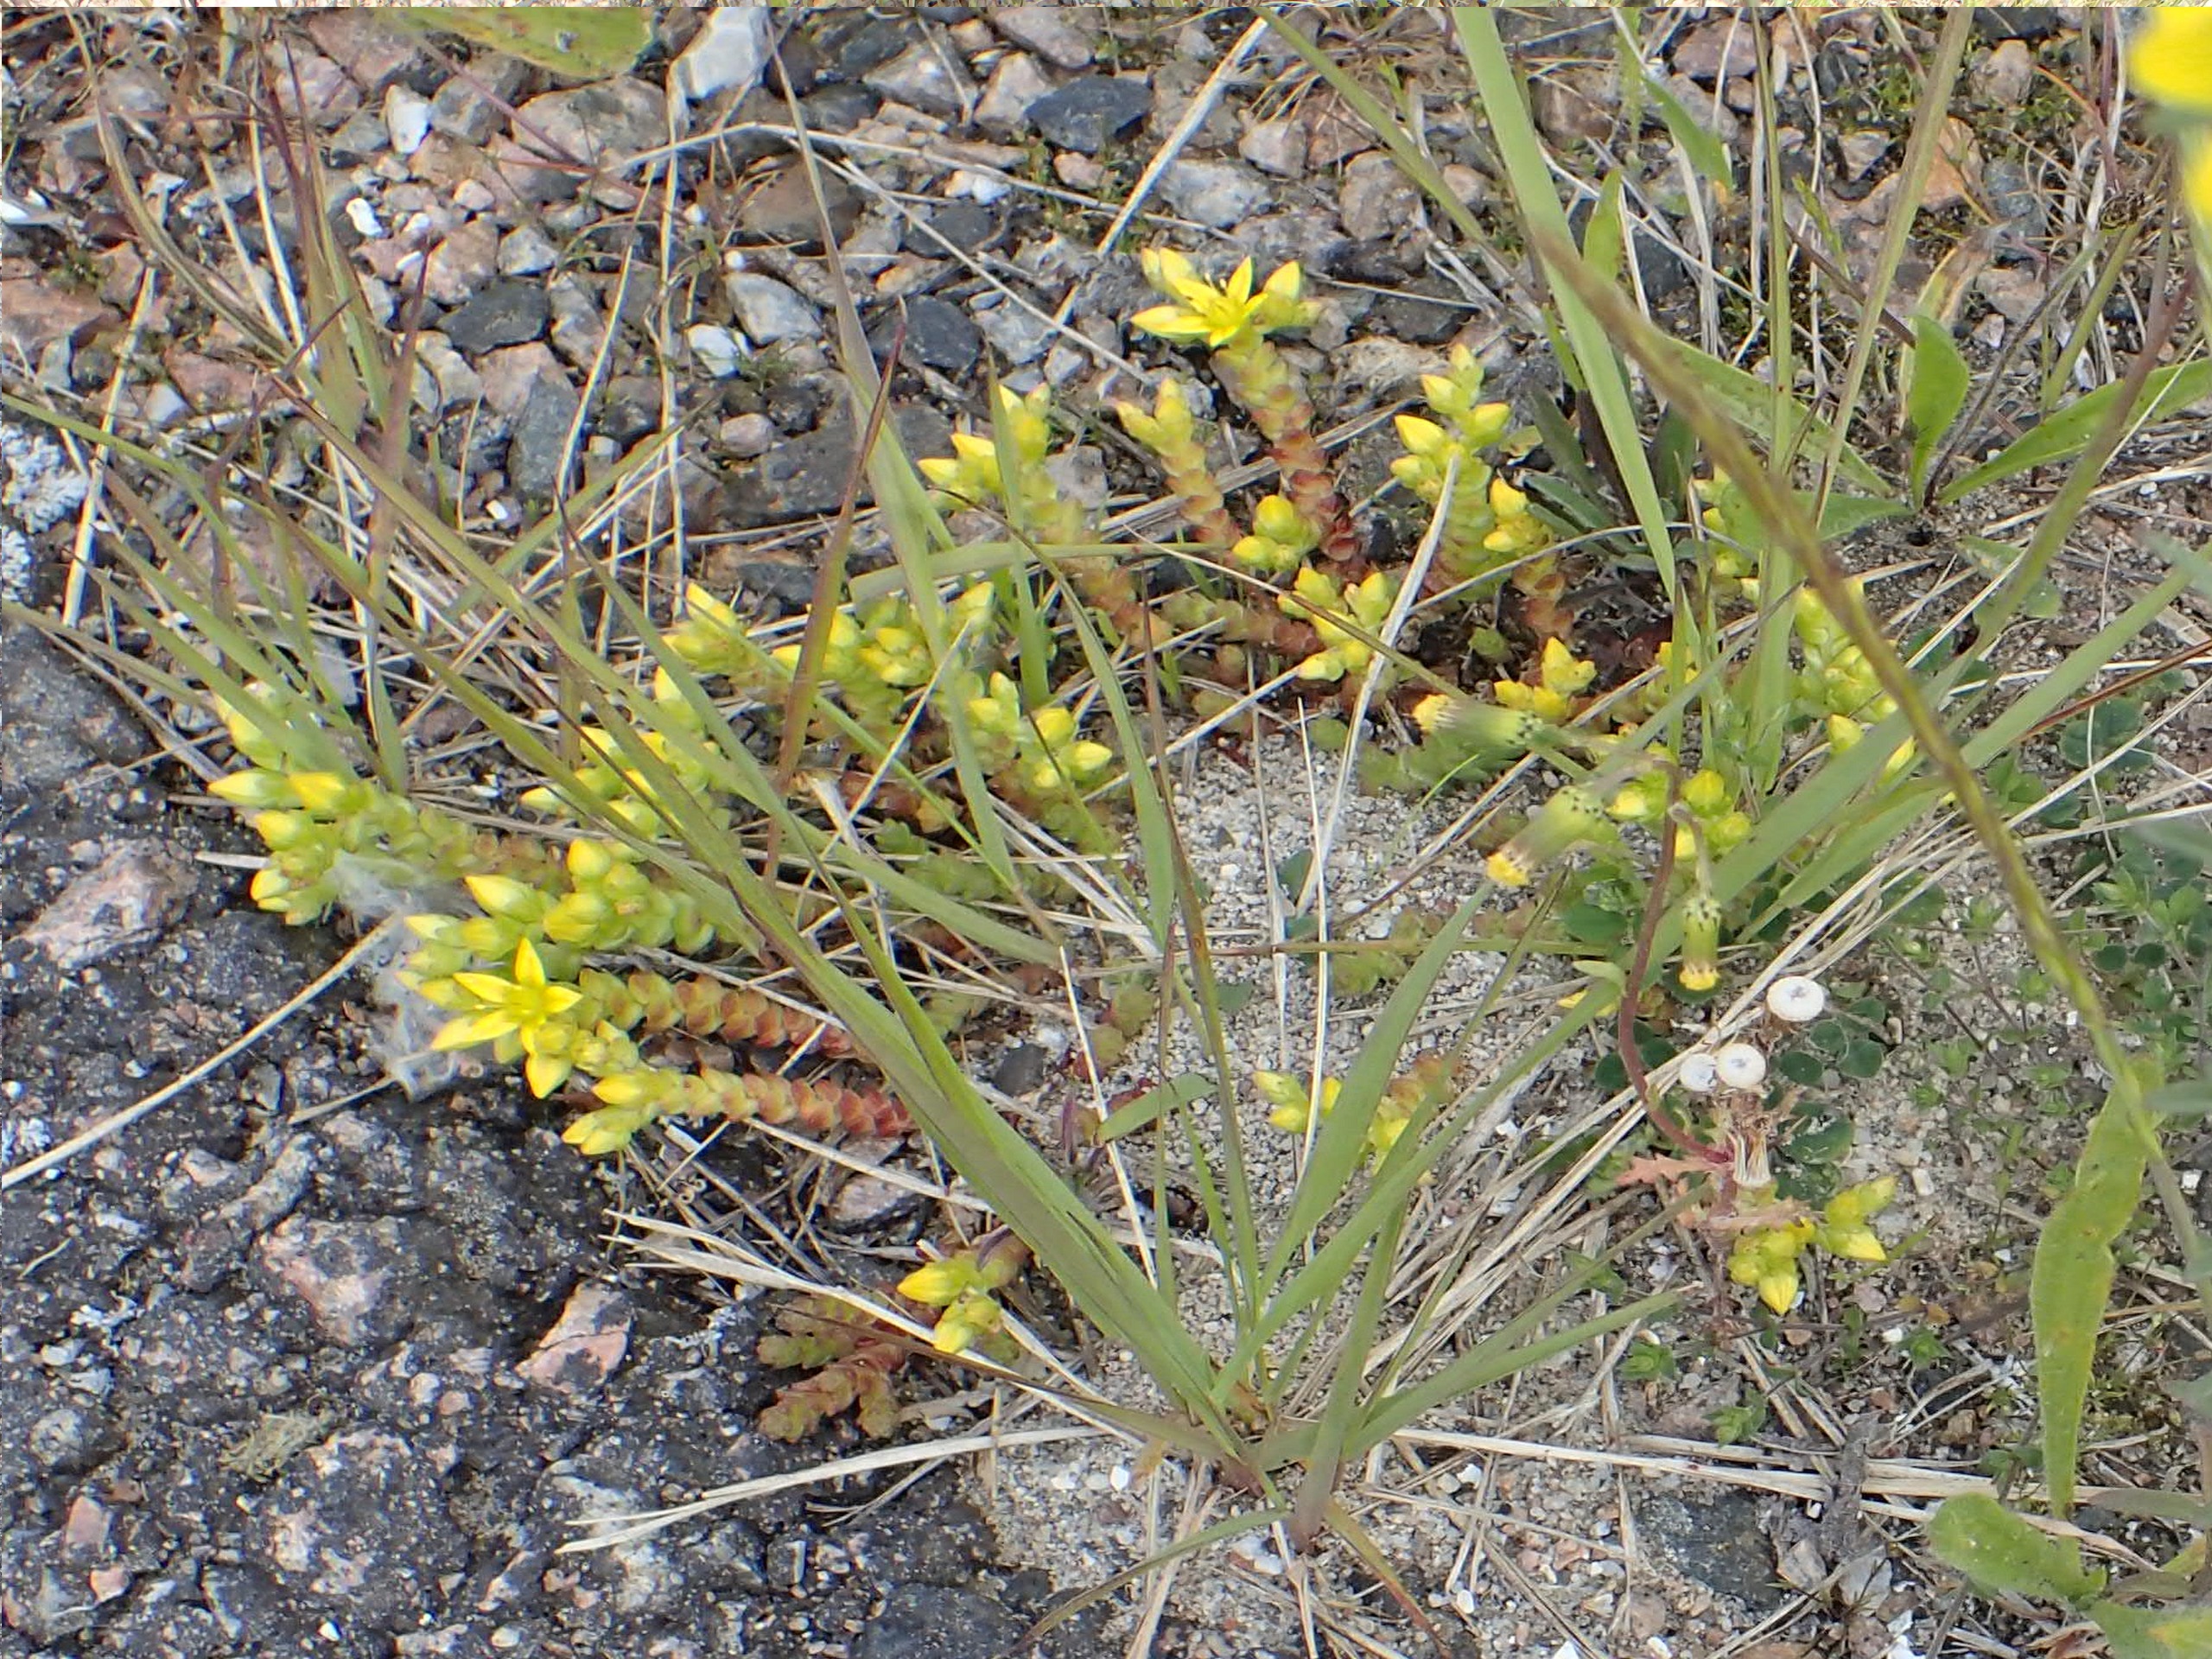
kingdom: Plantae
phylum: Tracheophyta
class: Magnoliopsida
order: Saxifragales
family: Crassulaceae
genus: Sedum
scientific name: Sedum acre
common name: Bidende stenurt
